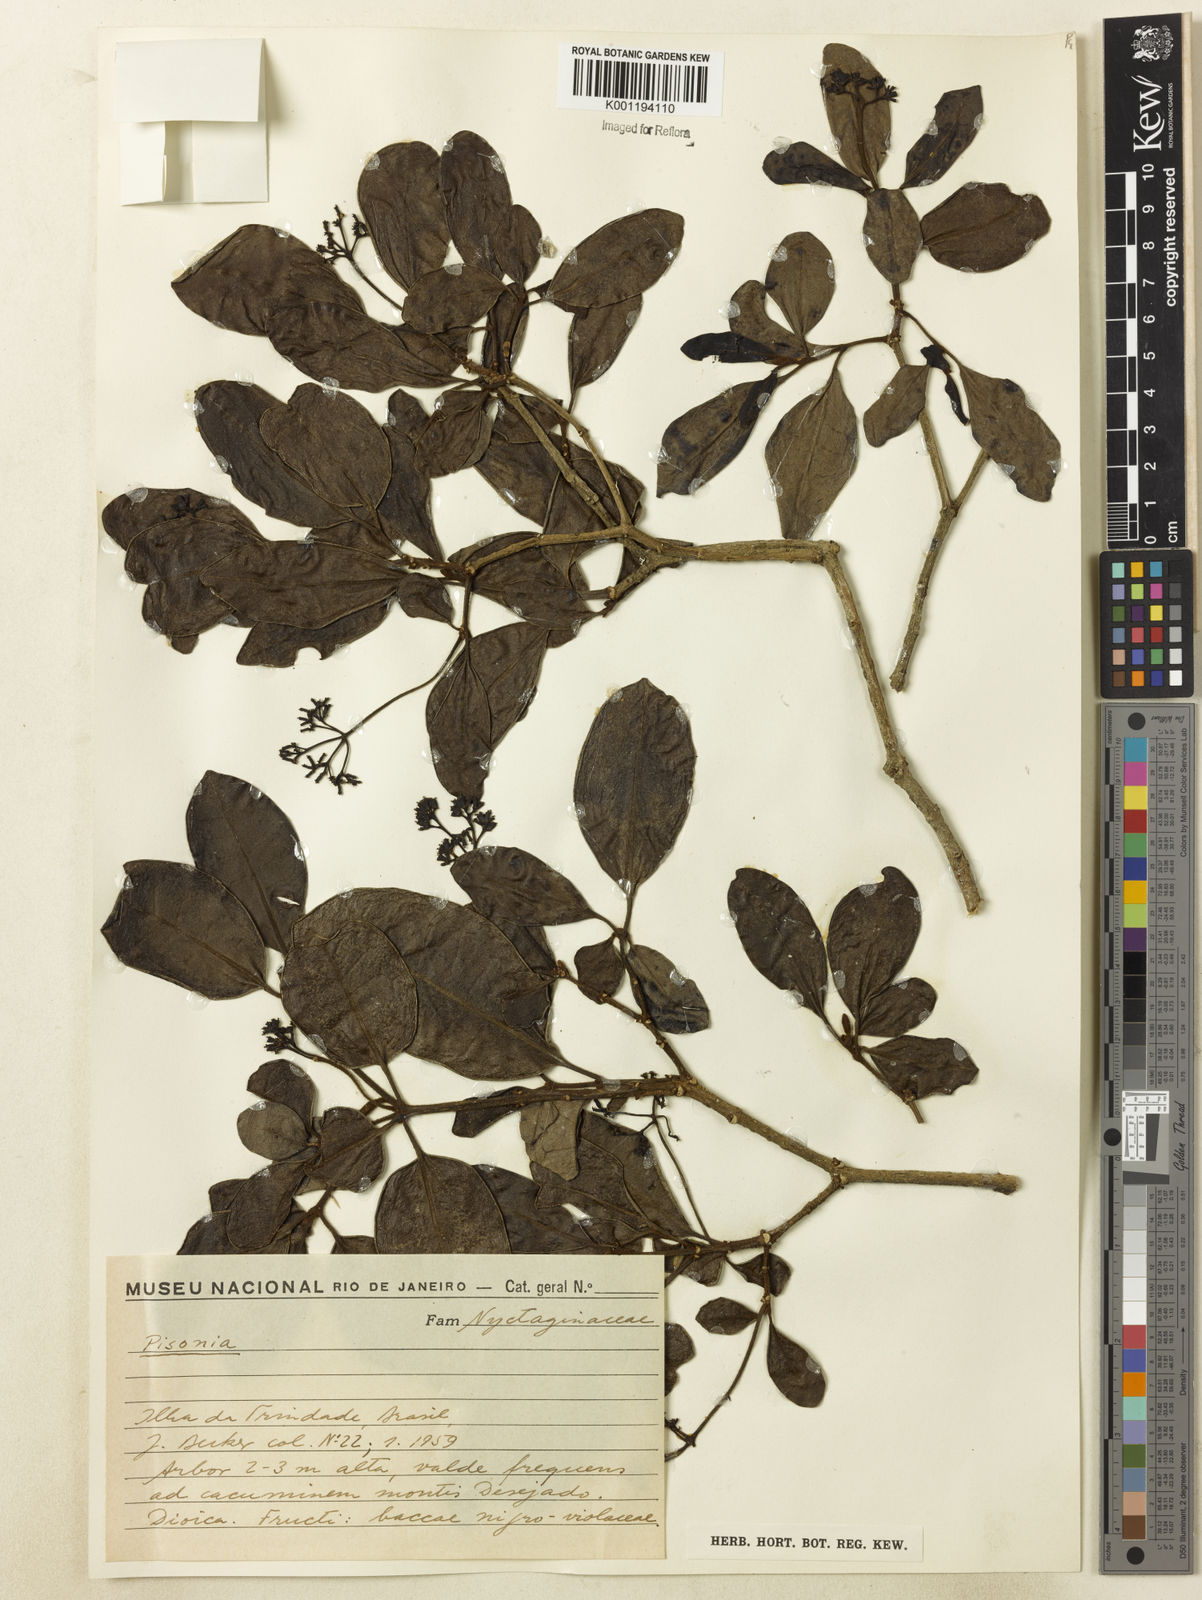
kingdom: Plantae
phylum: Tracheophyta
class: Magnoliopsida
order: Caryophyllales
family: Nyctaginaceae
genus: Guapira
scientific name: Guapira
